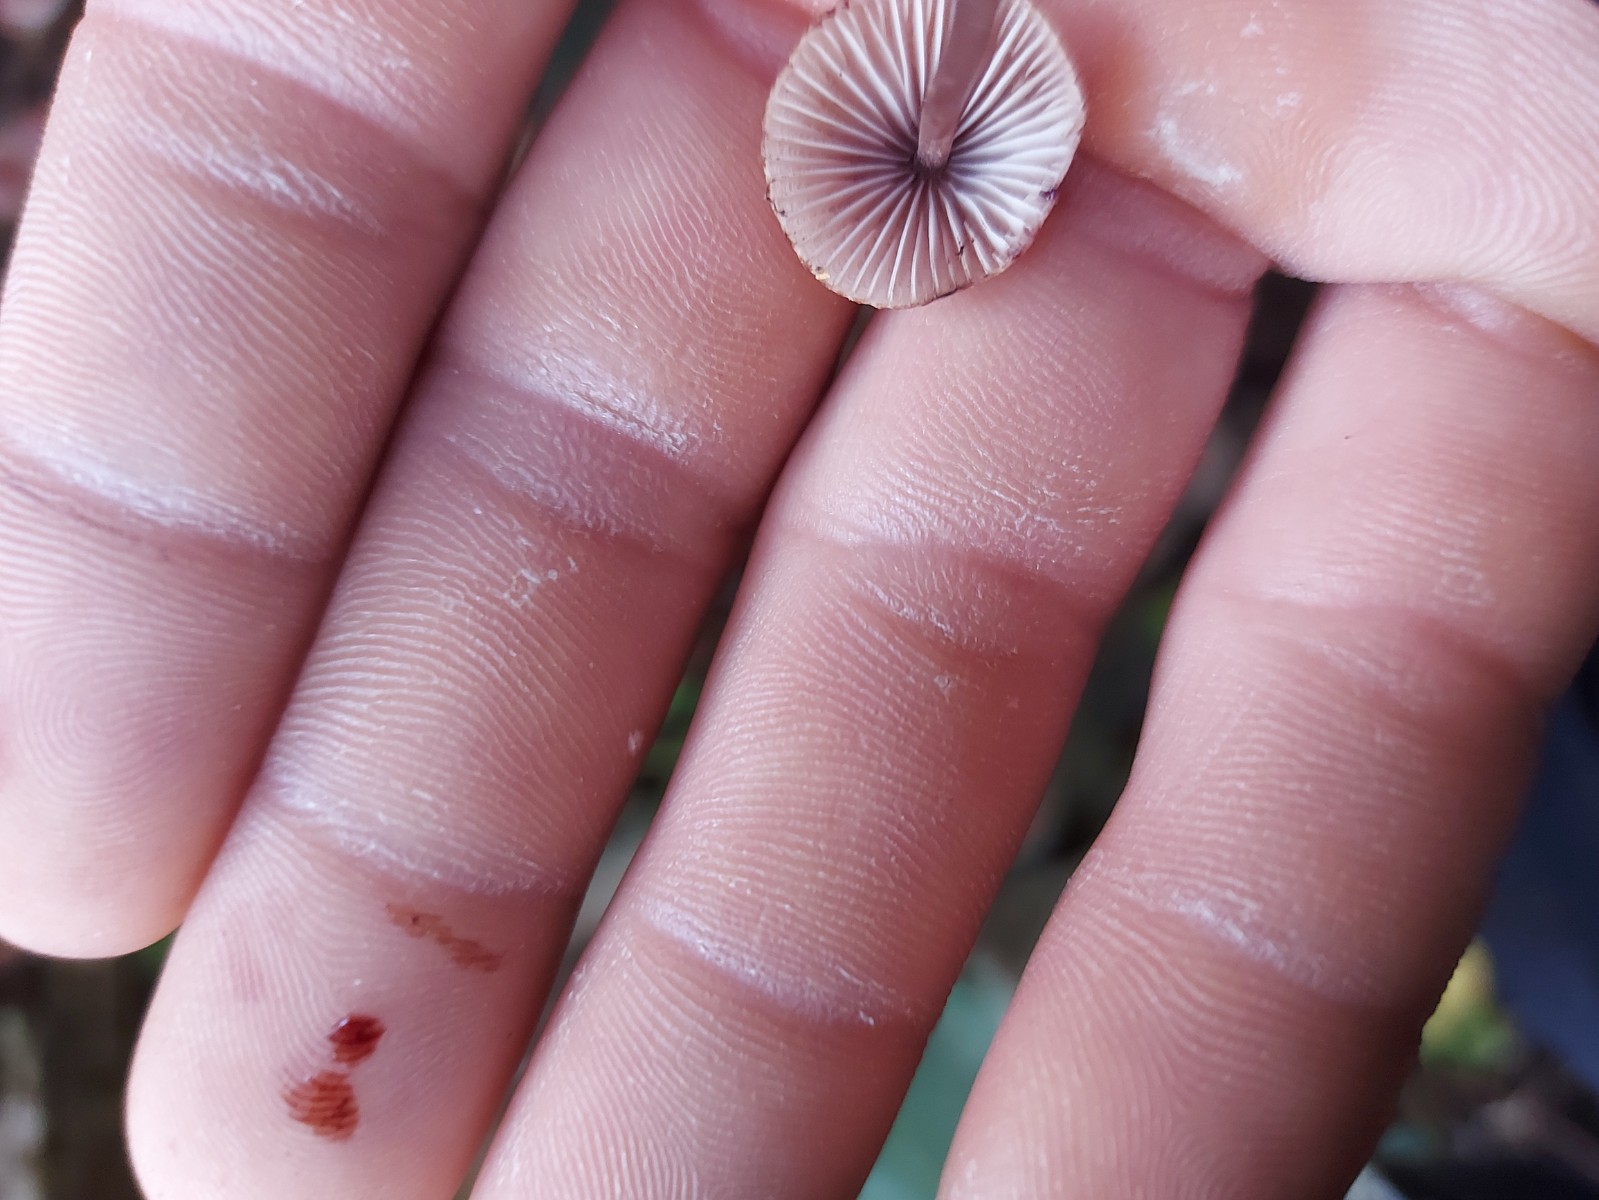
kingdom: Fungi
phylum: Basidiomycota
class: Agaricomycetes
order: Agaricales
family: Mycenaceae
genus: Mycena
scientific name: Mycena haematopus
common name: blødende huesvamp
